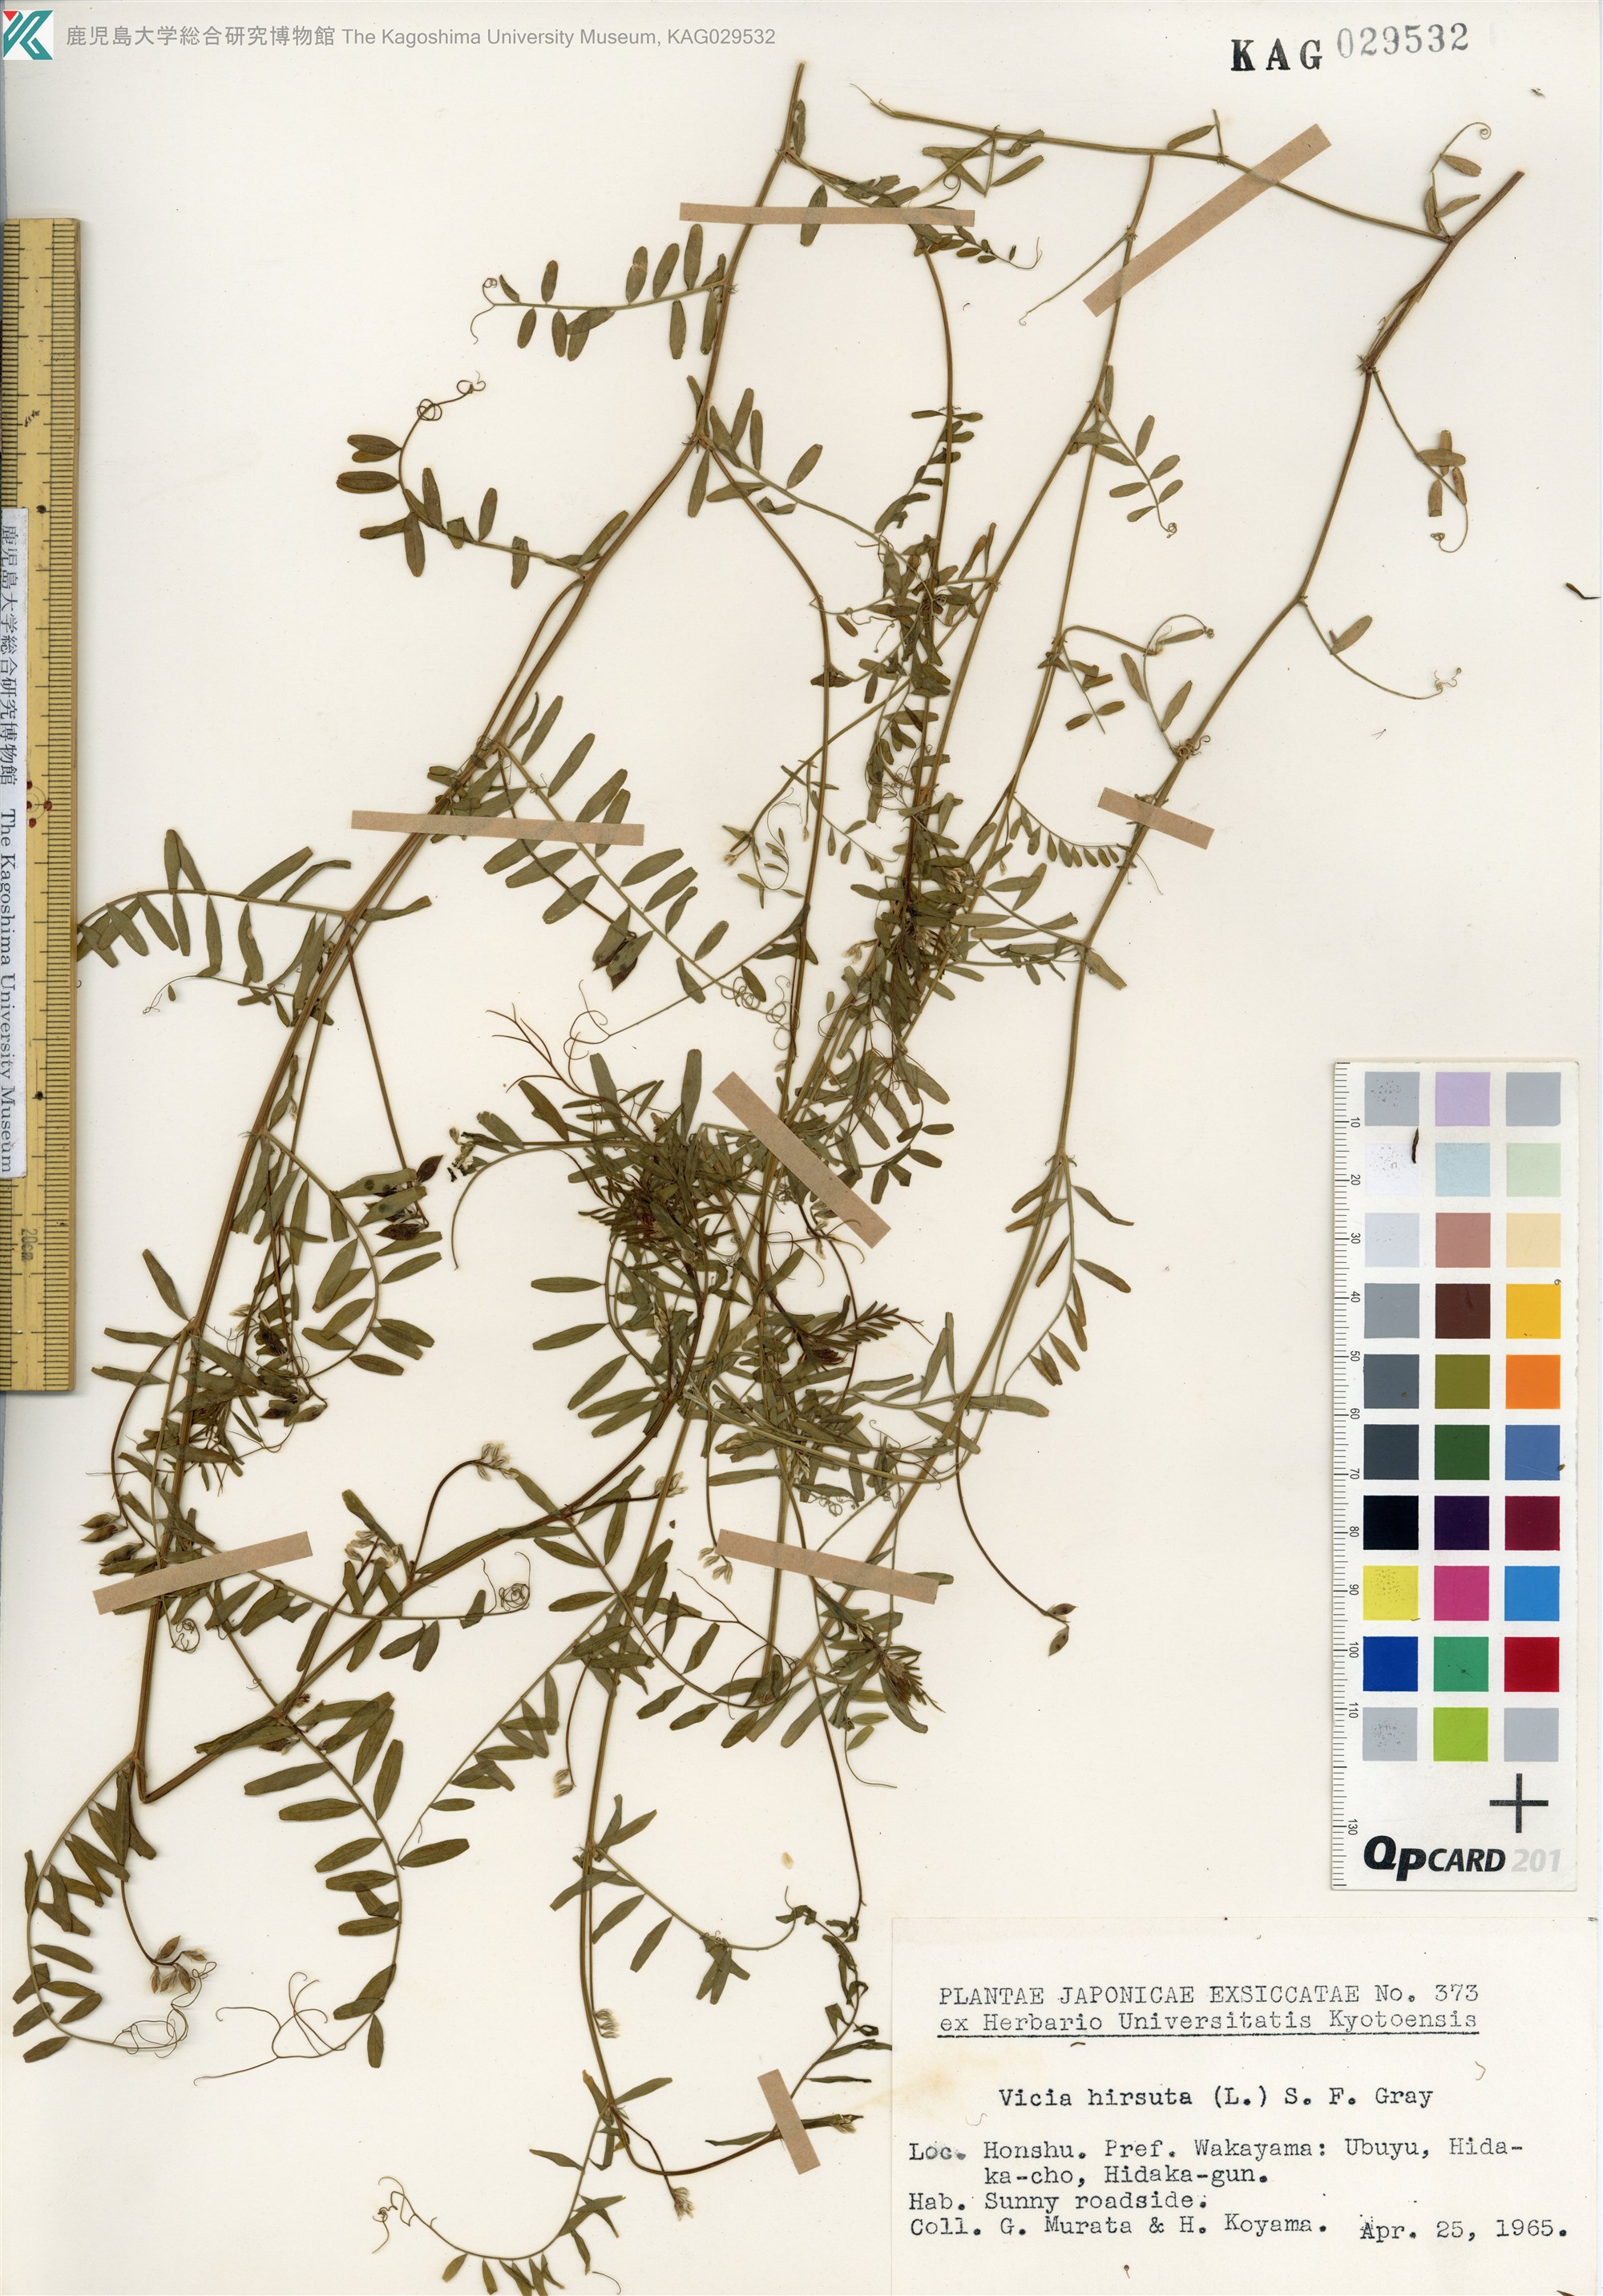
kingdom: Plantae
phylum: Tracheophyta
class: Magnoliopsida
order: Fabales
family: Fabaceae
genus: Vicia
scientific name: Vicia hirsuta
